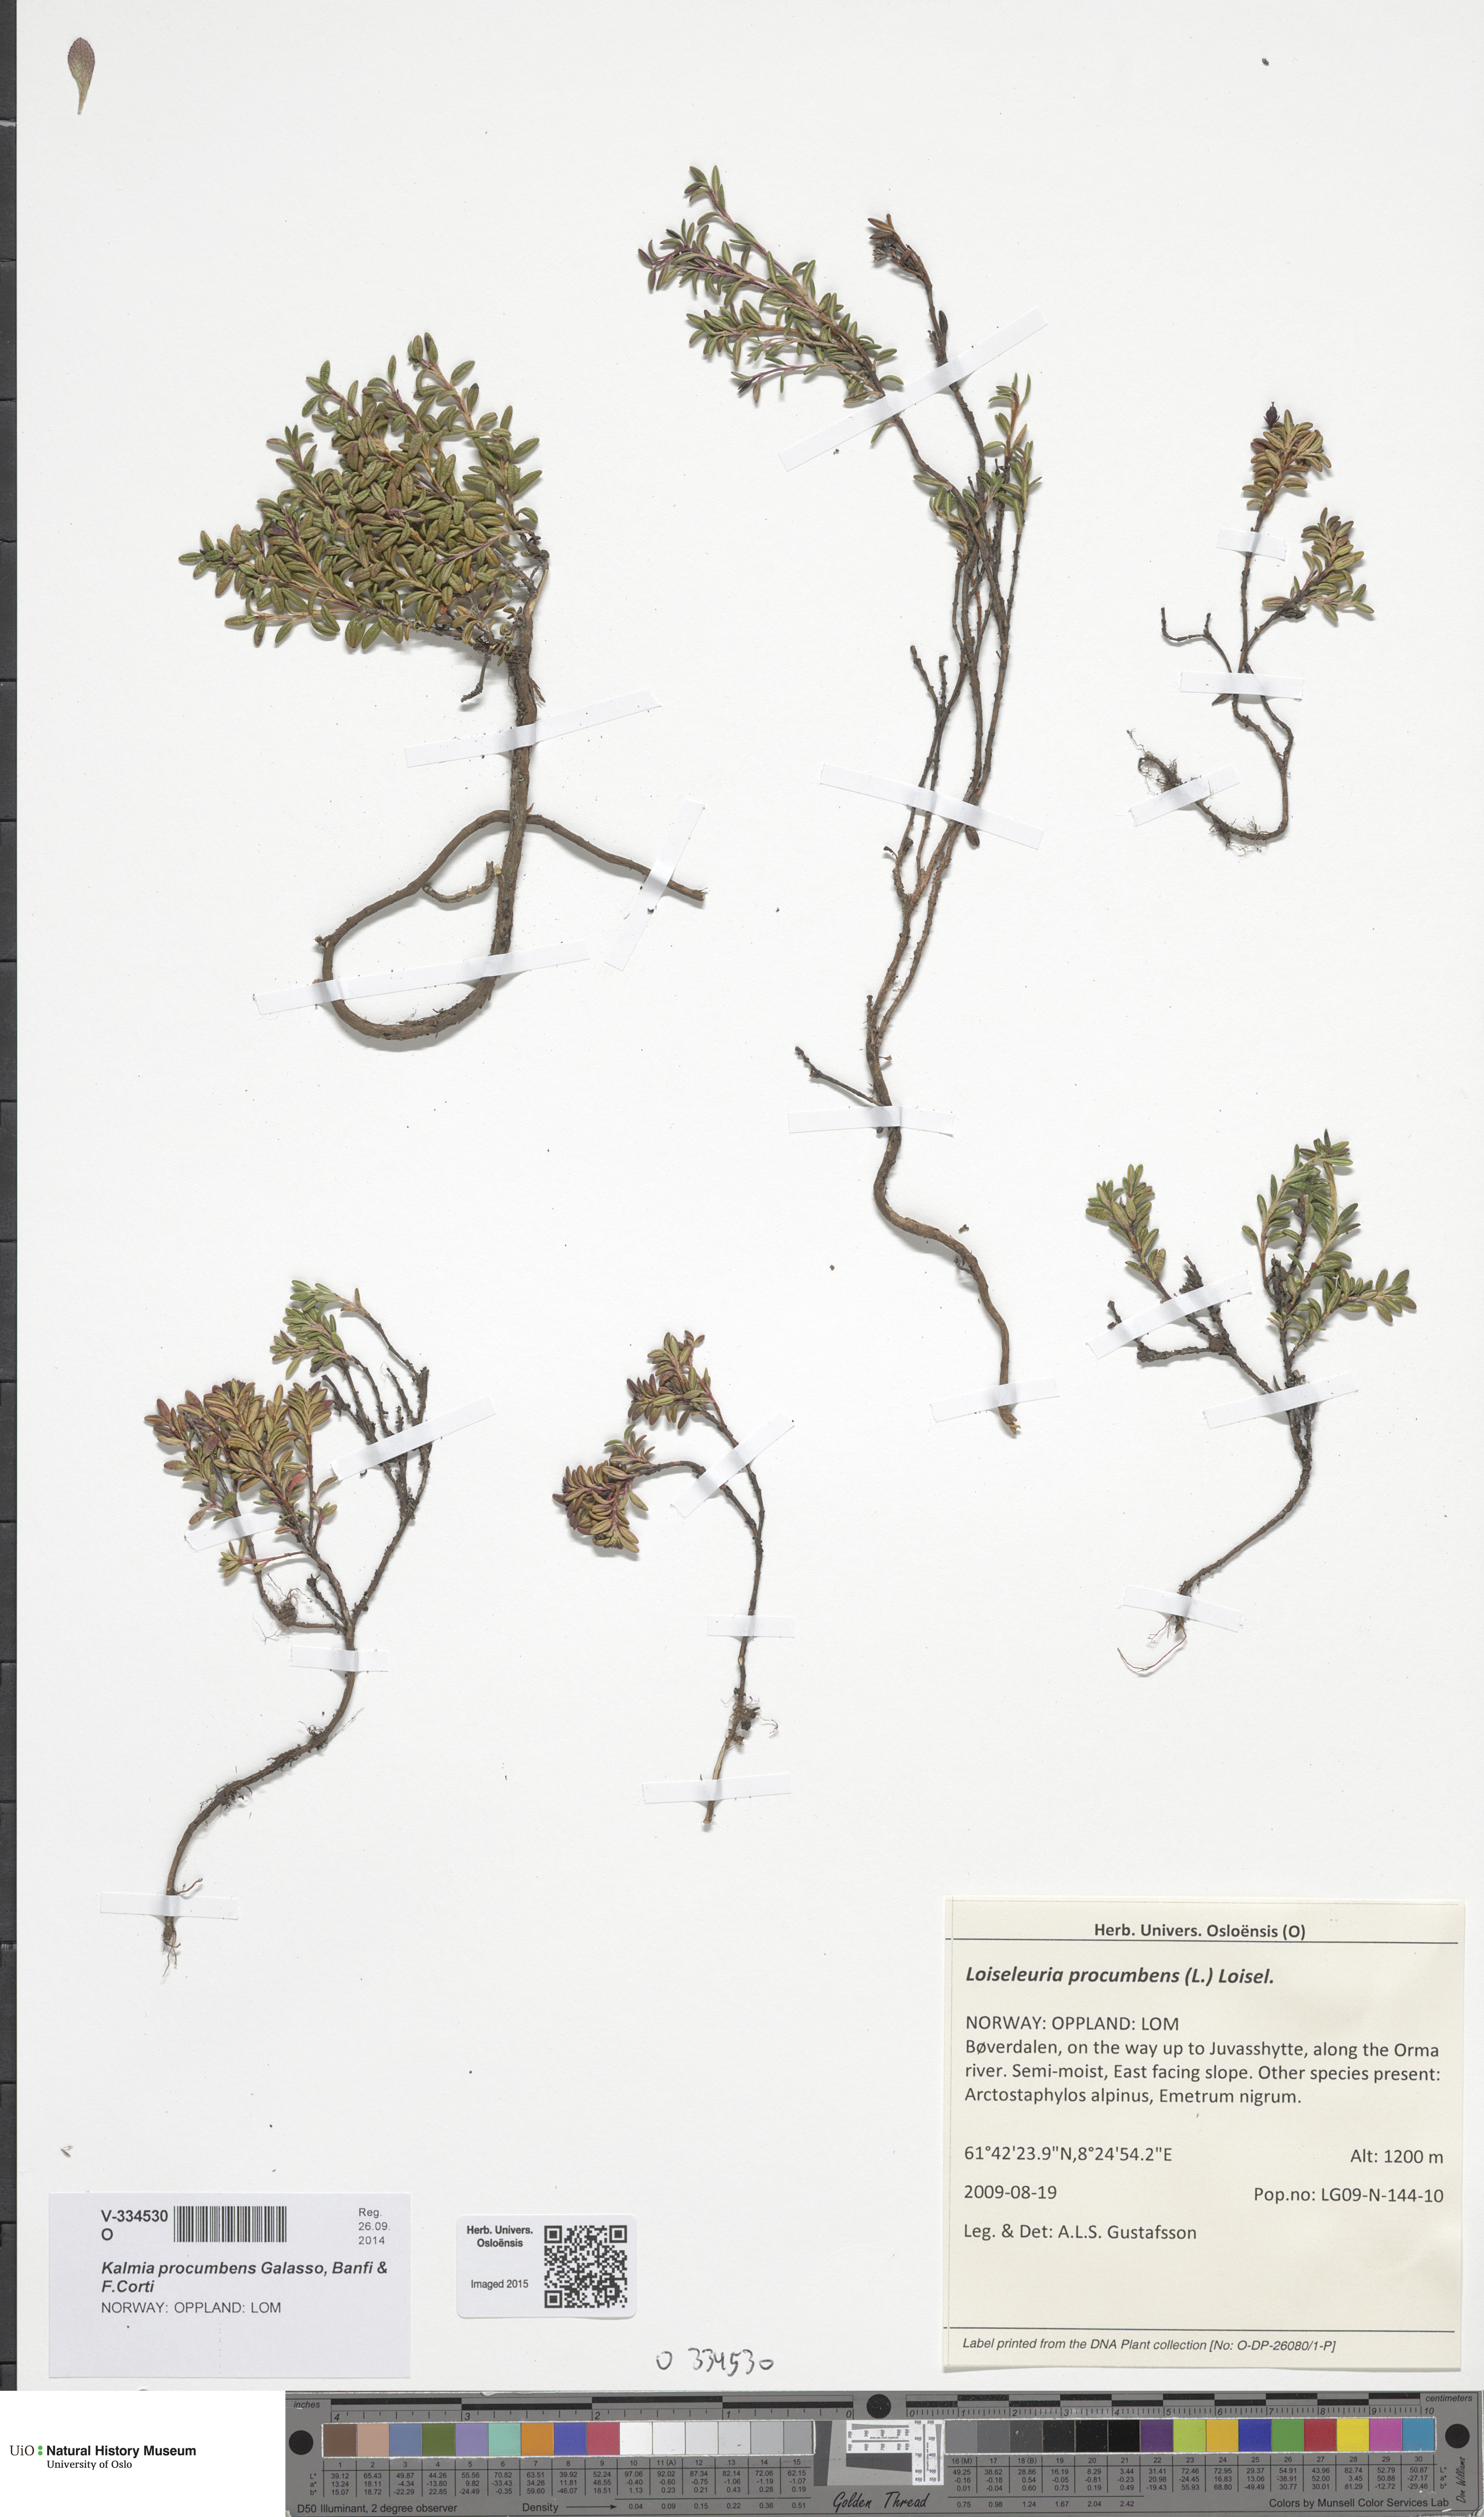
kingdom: Plantae
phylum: Tracheophyta
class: Magnoliopsida
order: Ericales
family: Ericaceae
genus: Kalmia
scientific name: Kalmia procumbens
